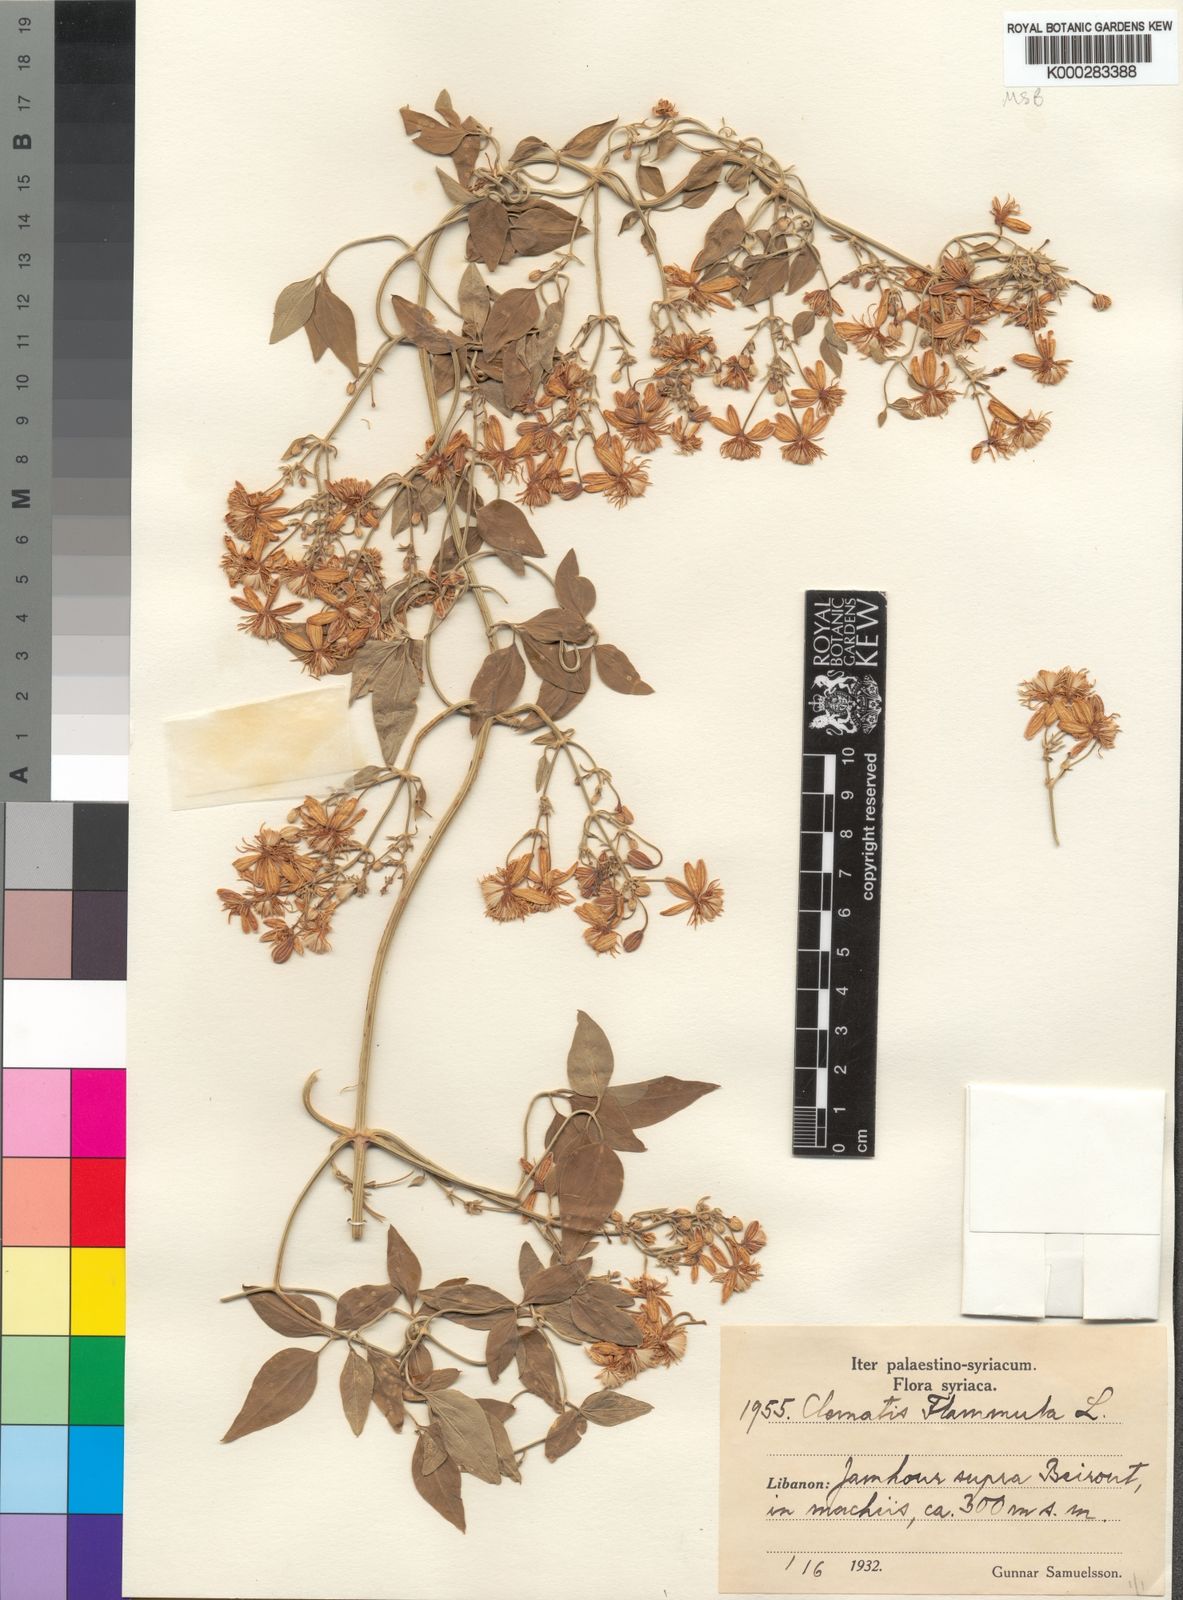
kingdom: Plantae
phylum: Tracheophyta
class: Magnoliopsida
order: Ranunculales
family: Ranunculaceae
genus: Clematis
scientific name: Clematis flammula
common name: Virgin's-bower
